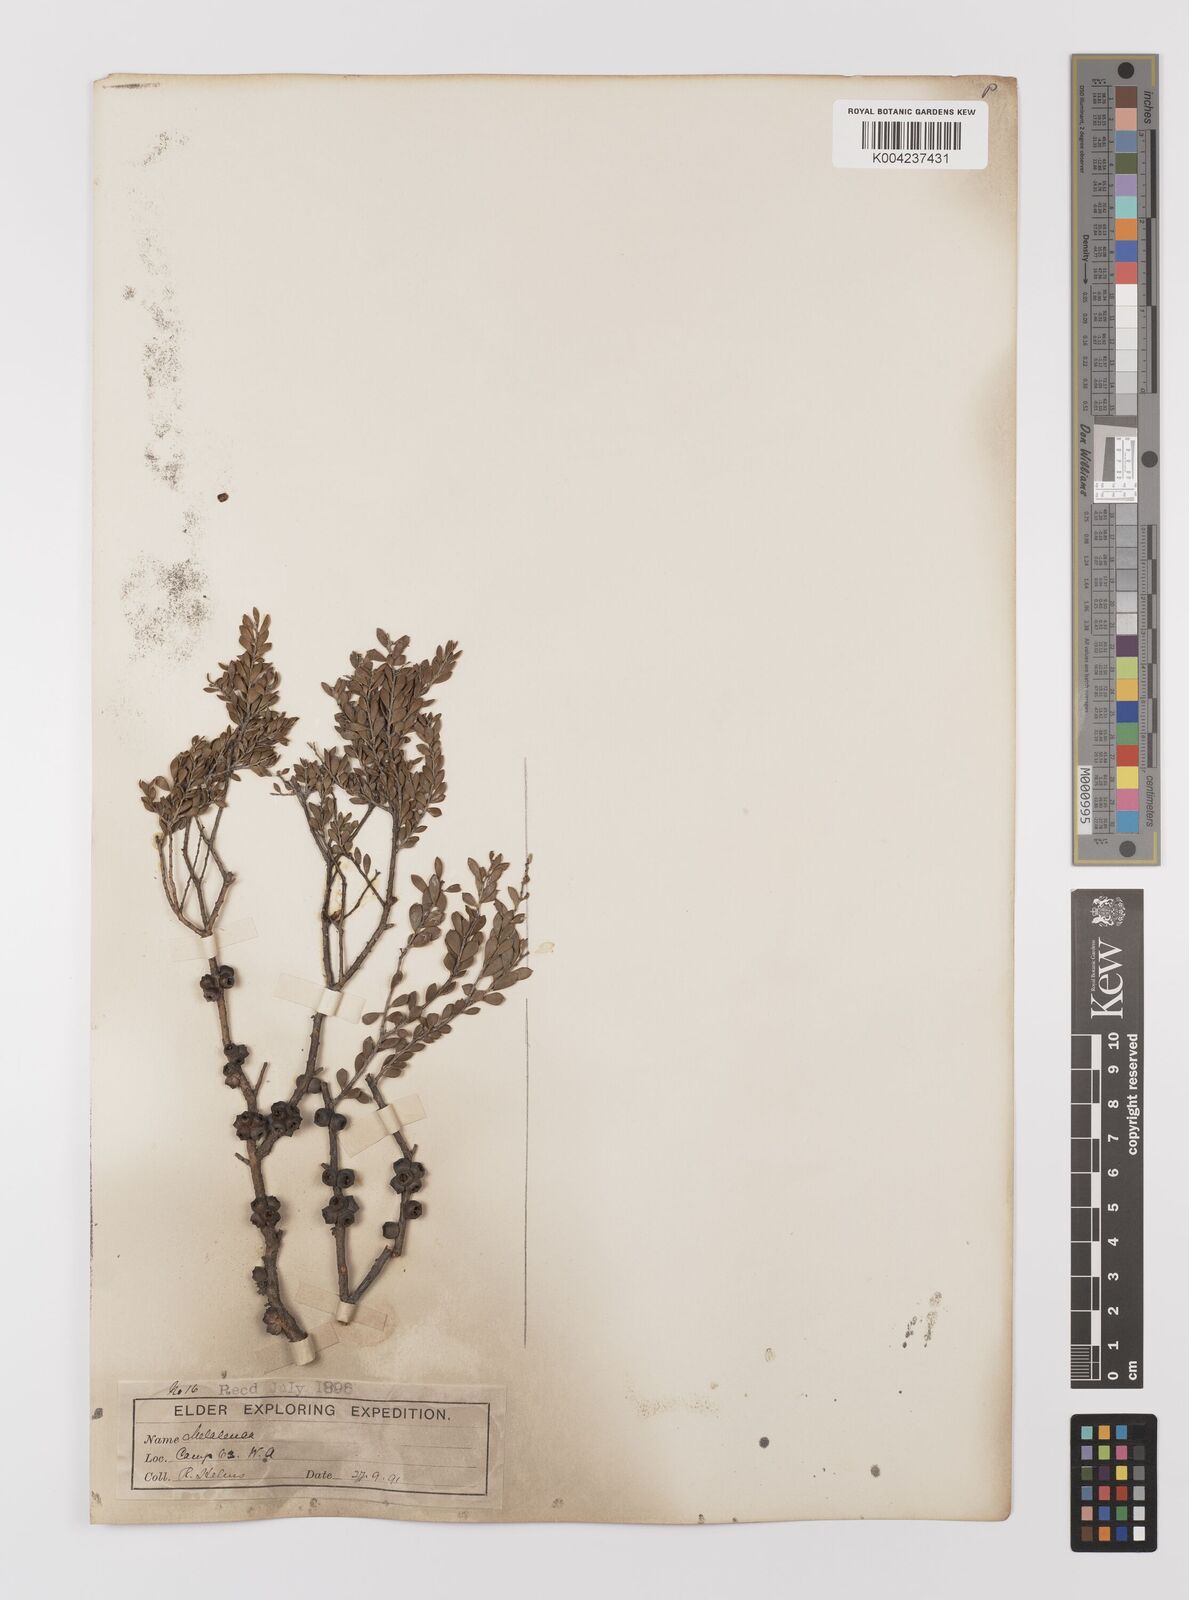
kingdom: Plantae
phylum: Tracheophyta
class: Magnoliopsida
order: Myrtales
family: Myrtaceae
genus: Melaleuca
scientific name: Melaleuca
